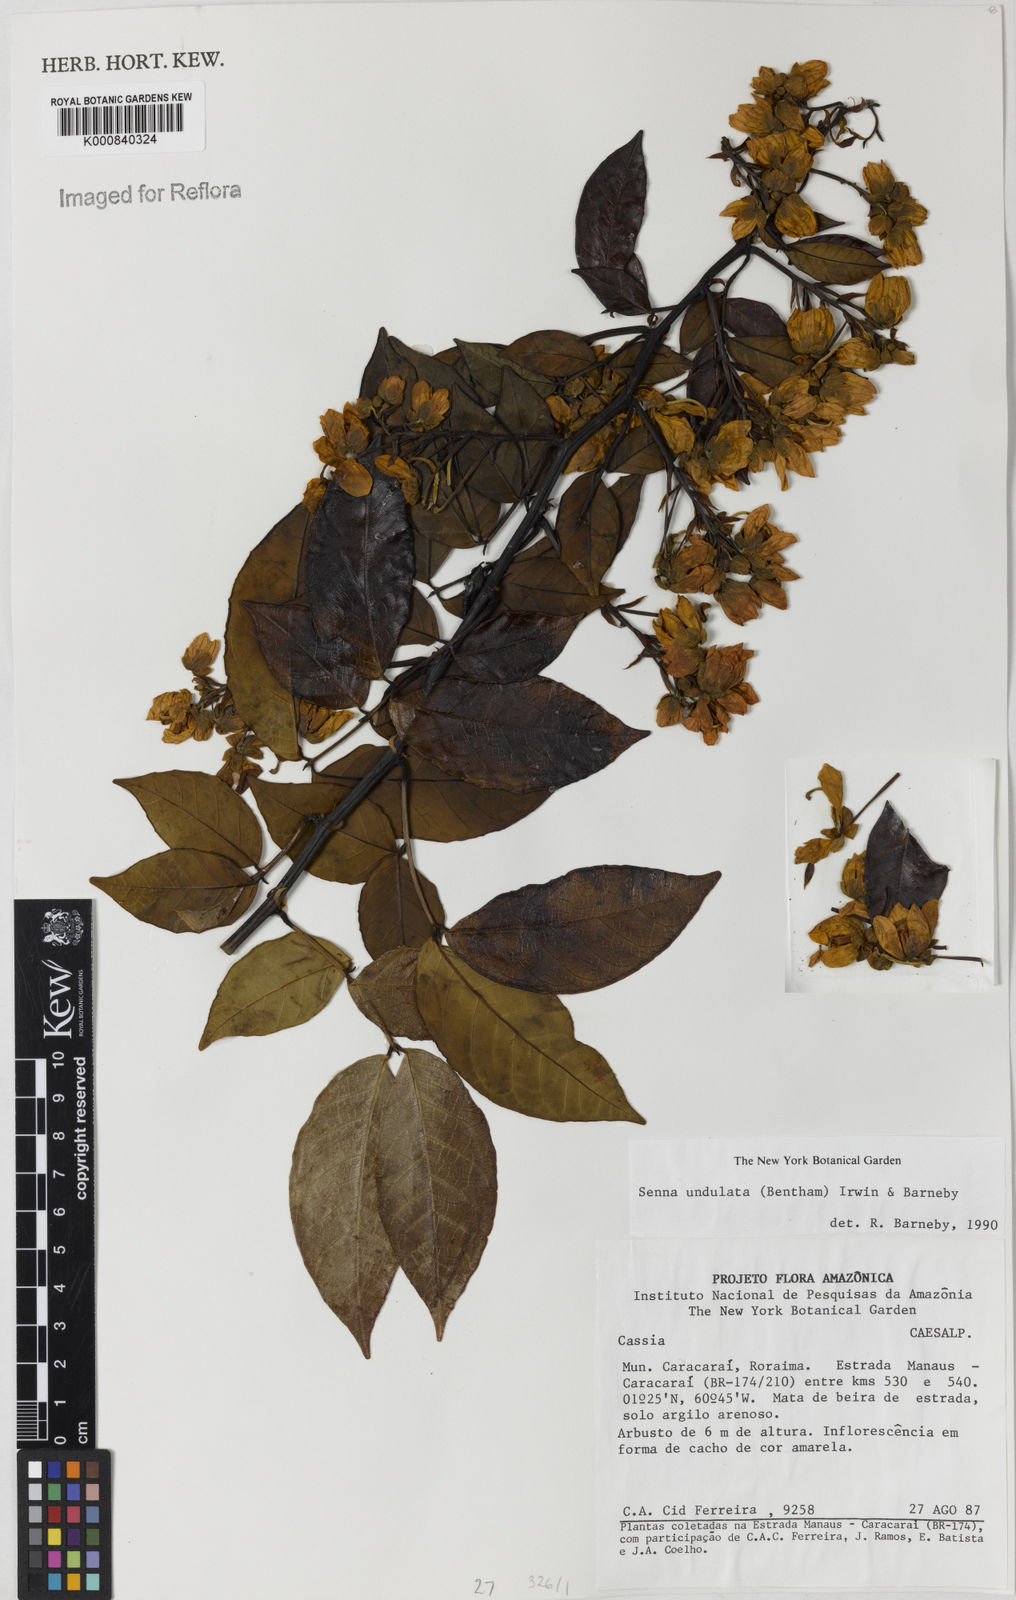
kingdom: Plantae
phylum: Tracheophyta
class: Magnoliopsida
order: Fabales
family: Fabaceae
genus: Senna
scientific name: Senna undulata
